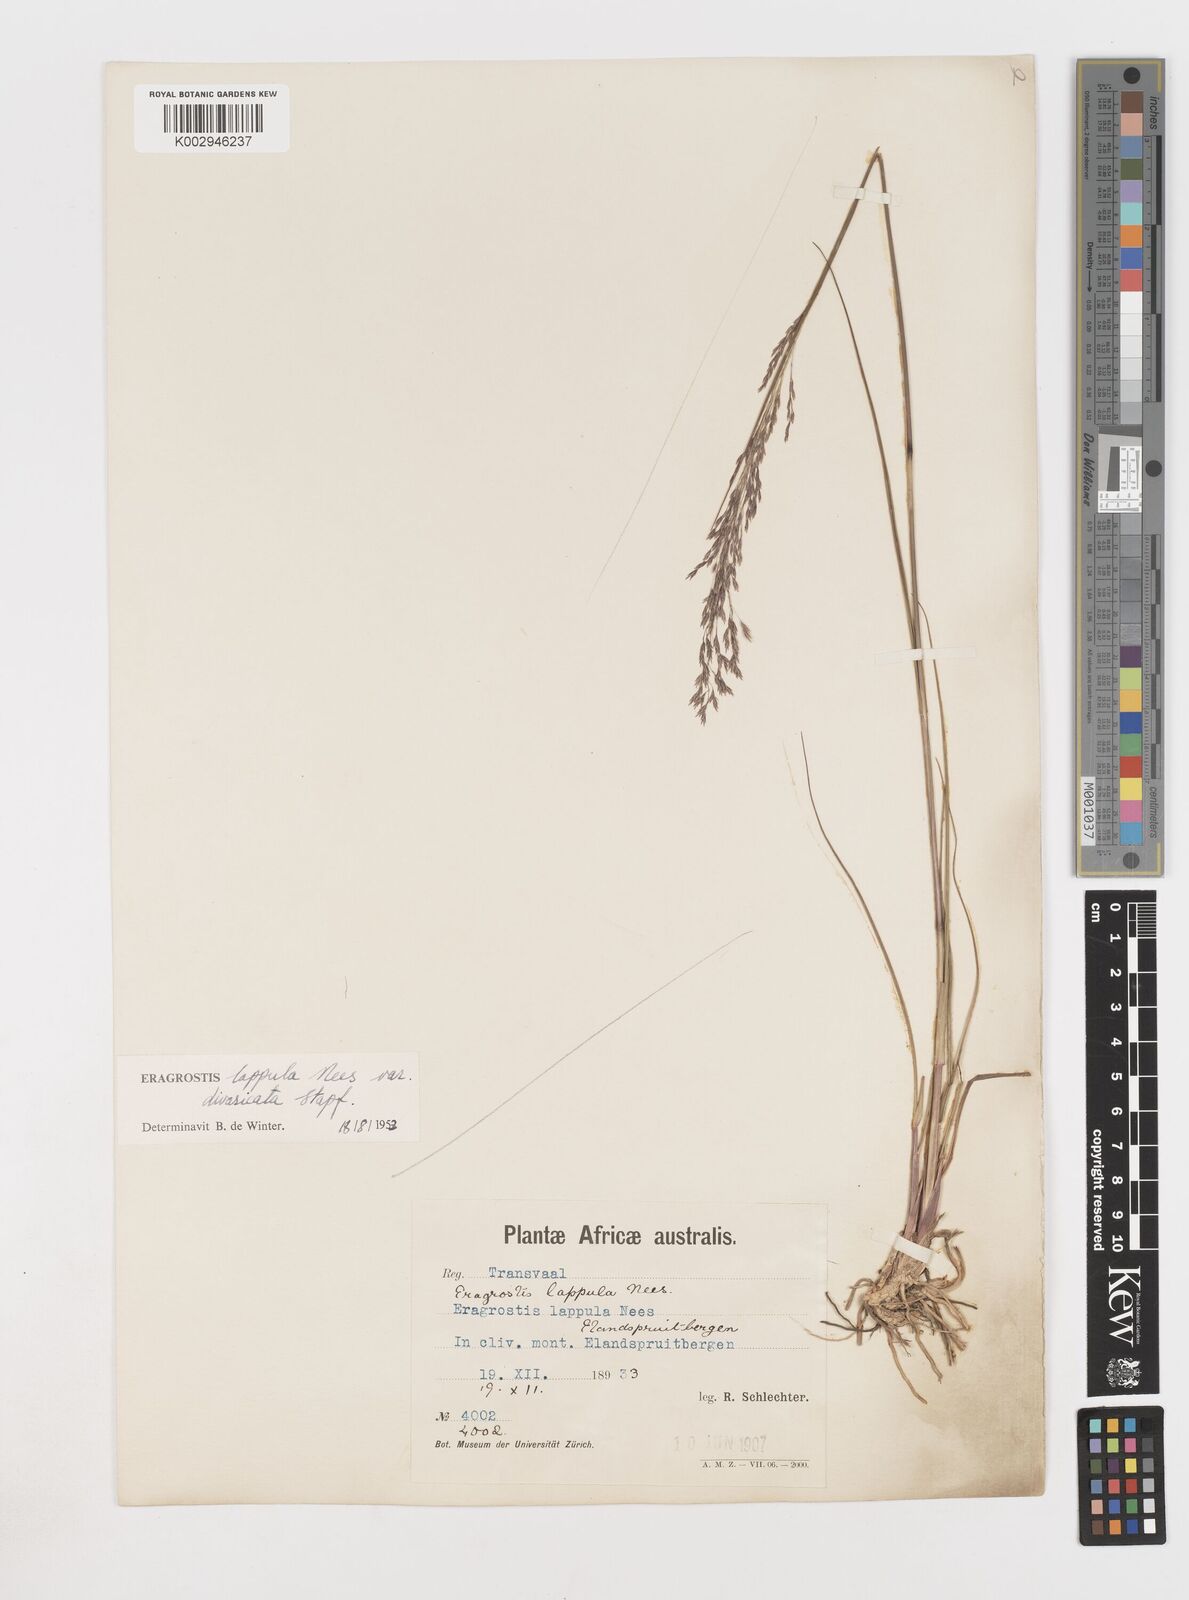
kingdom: Plantae
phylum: Tracheophyta
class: Liliopsida
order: Poales
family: Poaceae
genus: Eragrostis
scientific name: Eragrostis lappula
